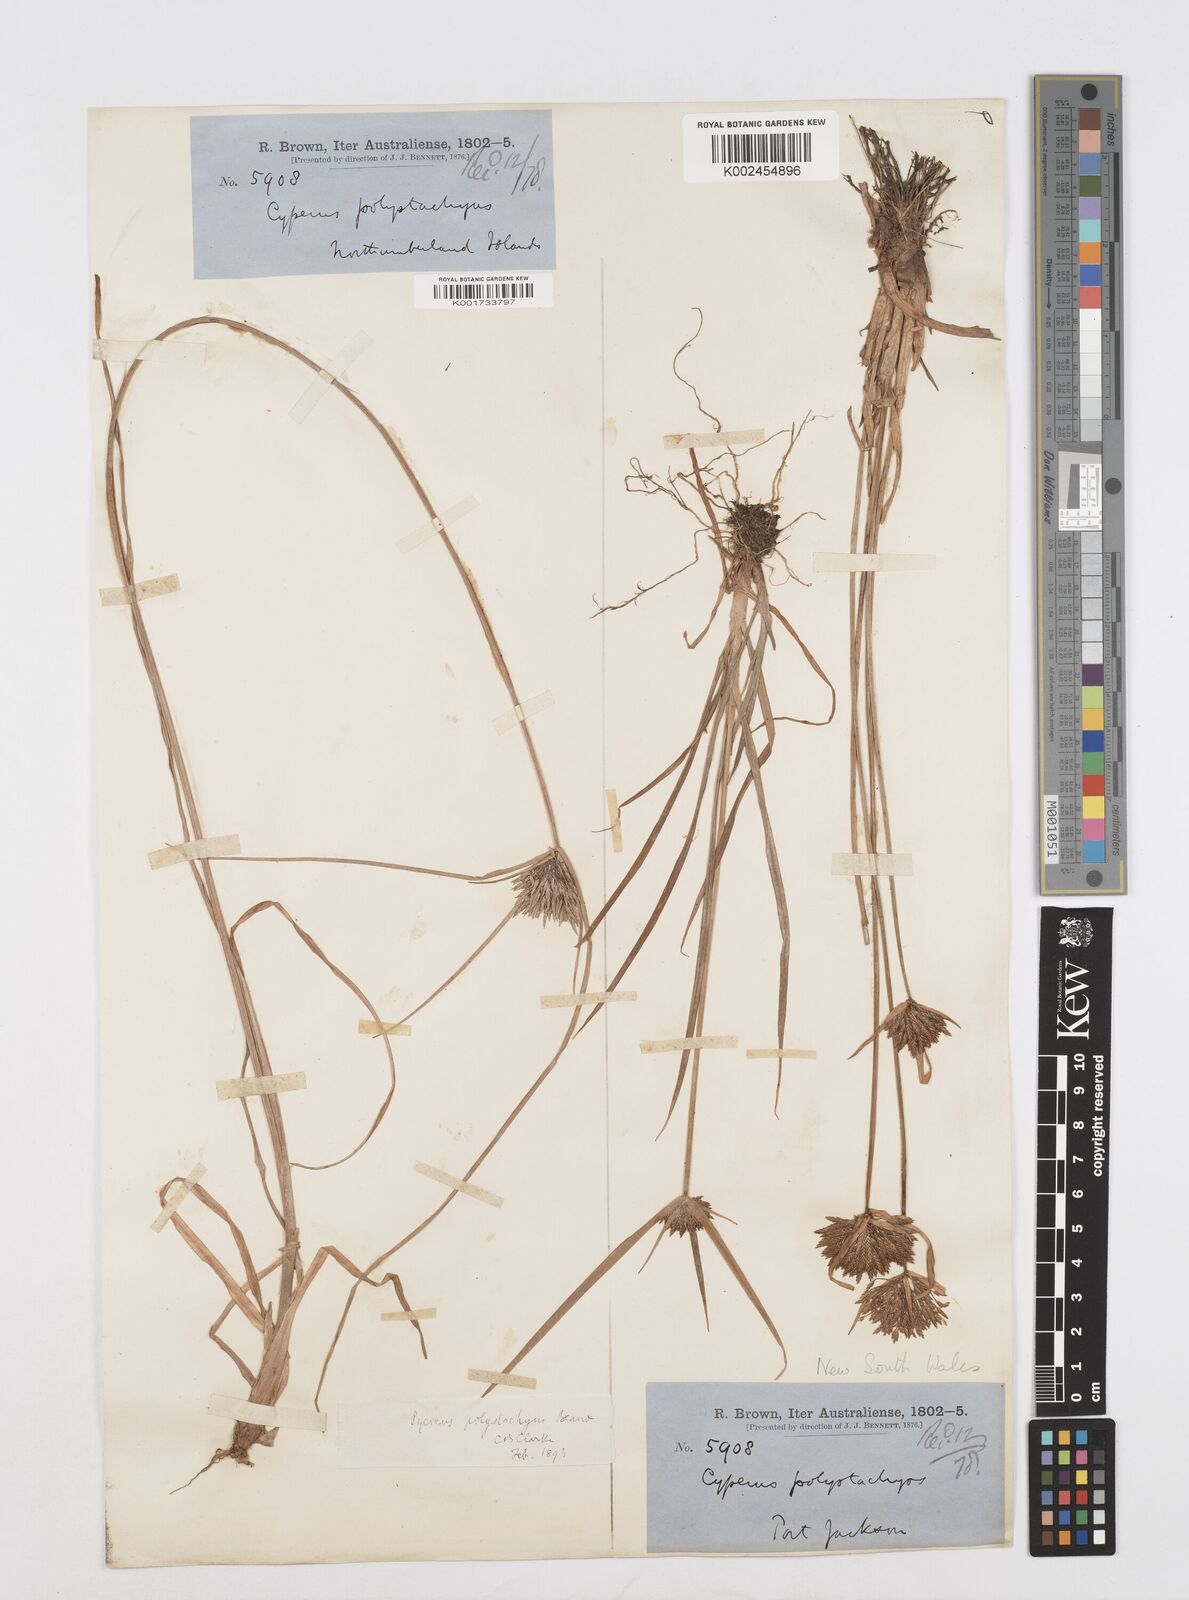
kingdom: Plantae
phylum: Tracheophyta
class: Liliopsida
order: Poales
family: Cyperaceae
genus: Cyperus
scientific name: Cyperus polystachyos
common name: Bunchy flat sedge
